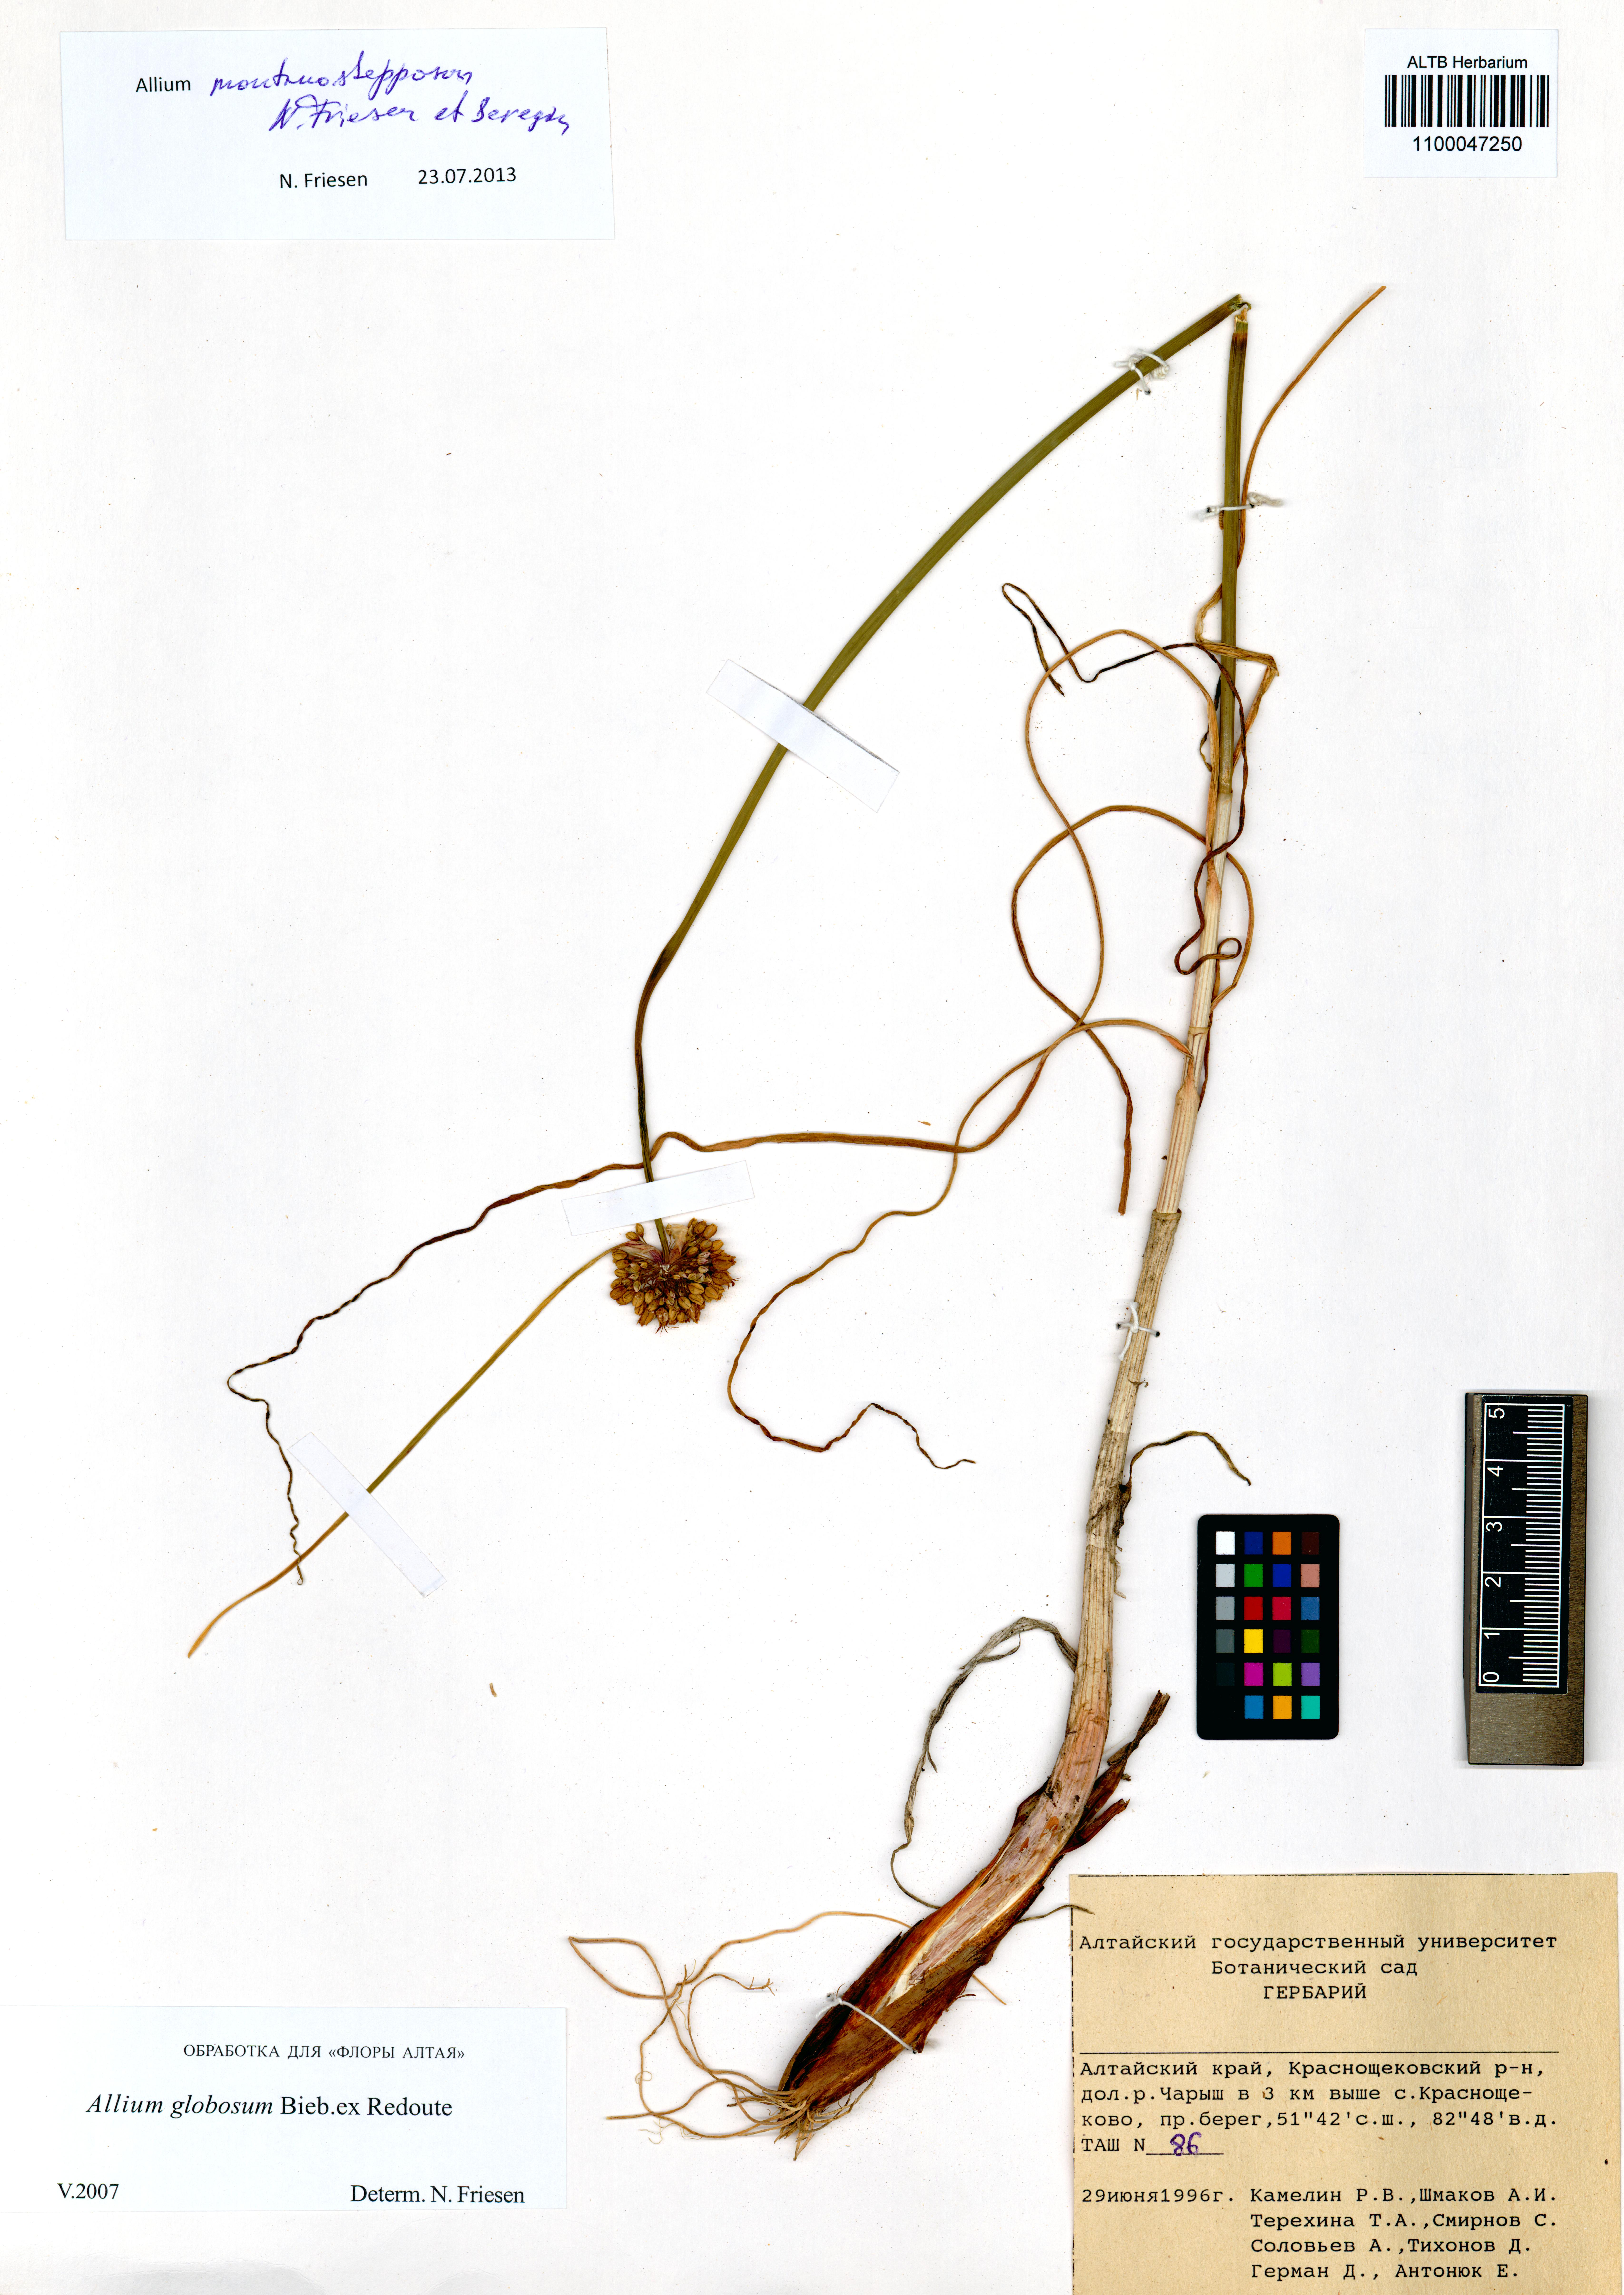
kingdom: Plantae
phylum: Tracheophyta
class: Liliopsida
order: Asparagales
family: Amaryllidaceae
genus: Allium
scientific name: Allium montanostepposum
